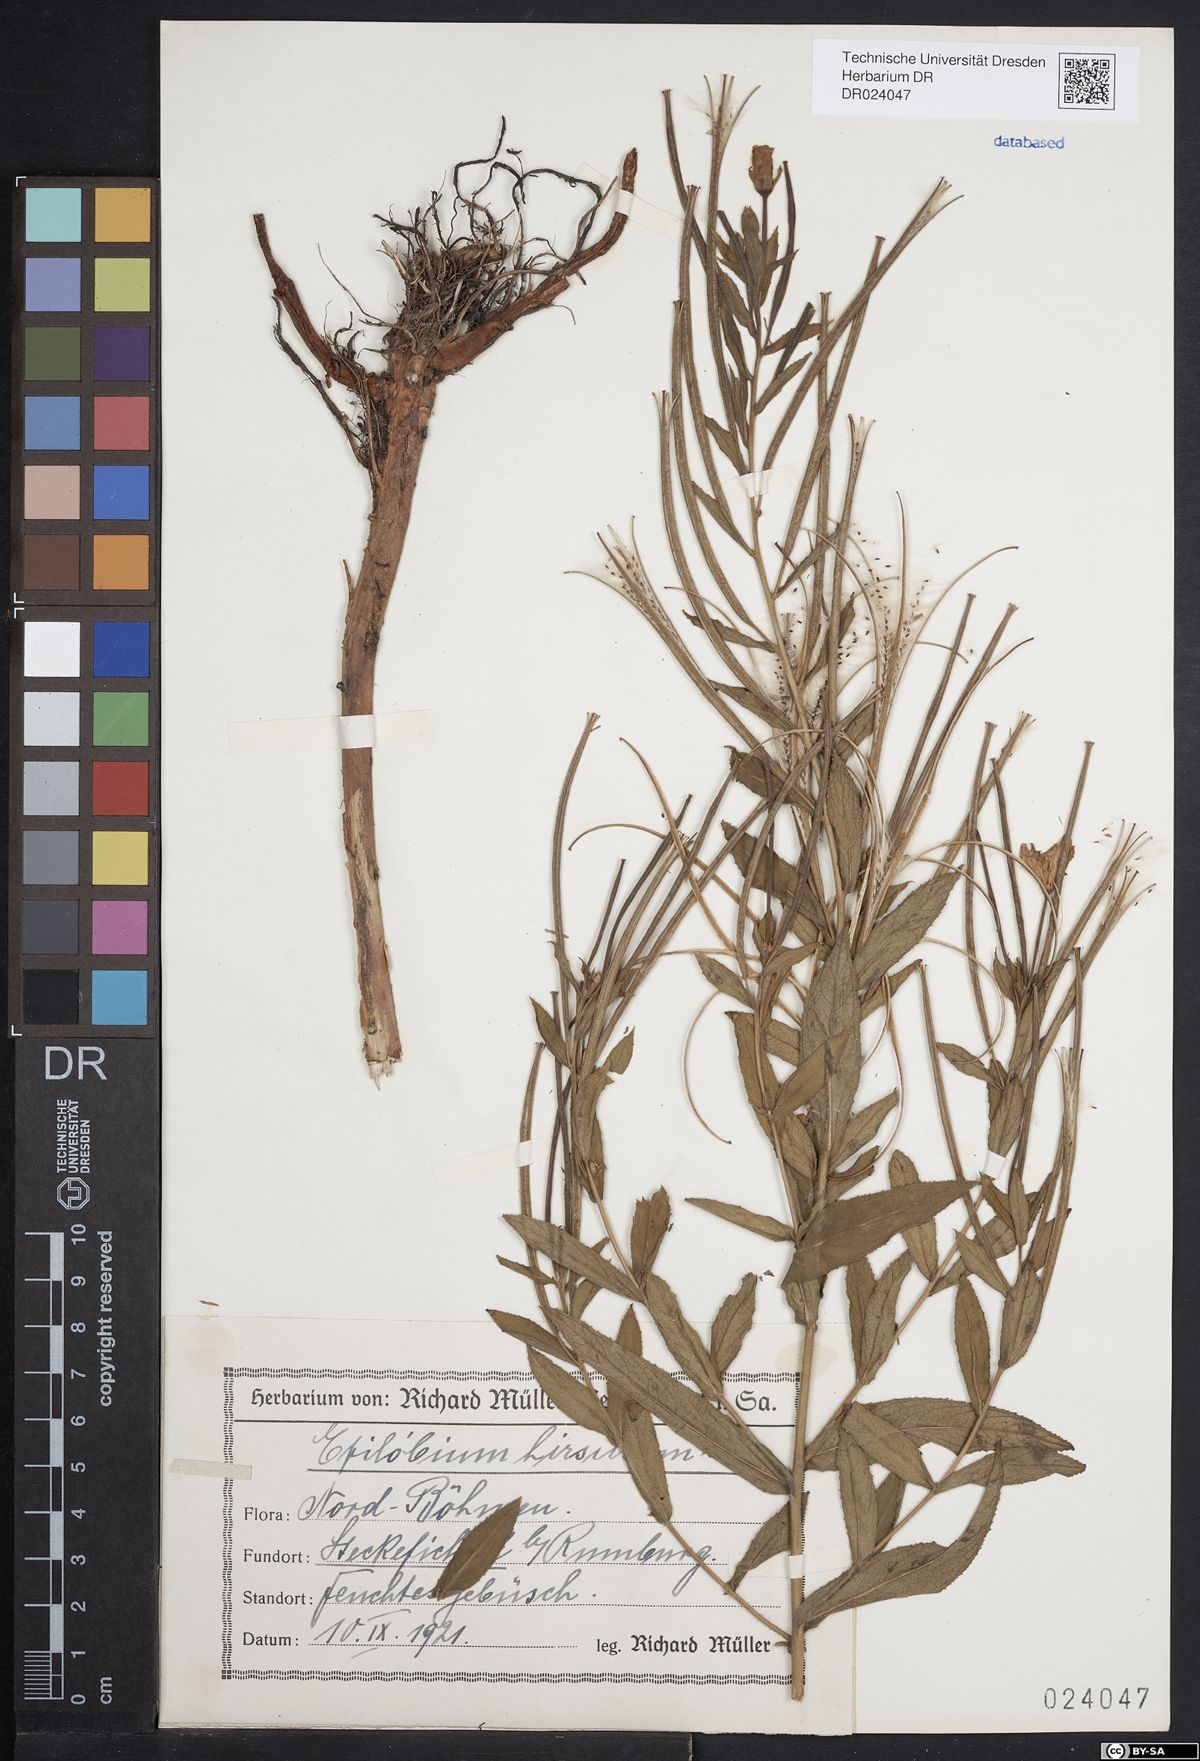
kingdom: Plantae
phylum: Tracheophyta
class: Magnoliopsida
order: Myrtales
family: Onagraceae
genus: Epilobium
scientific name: Epilobium hirsutum
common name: Great willowherb
